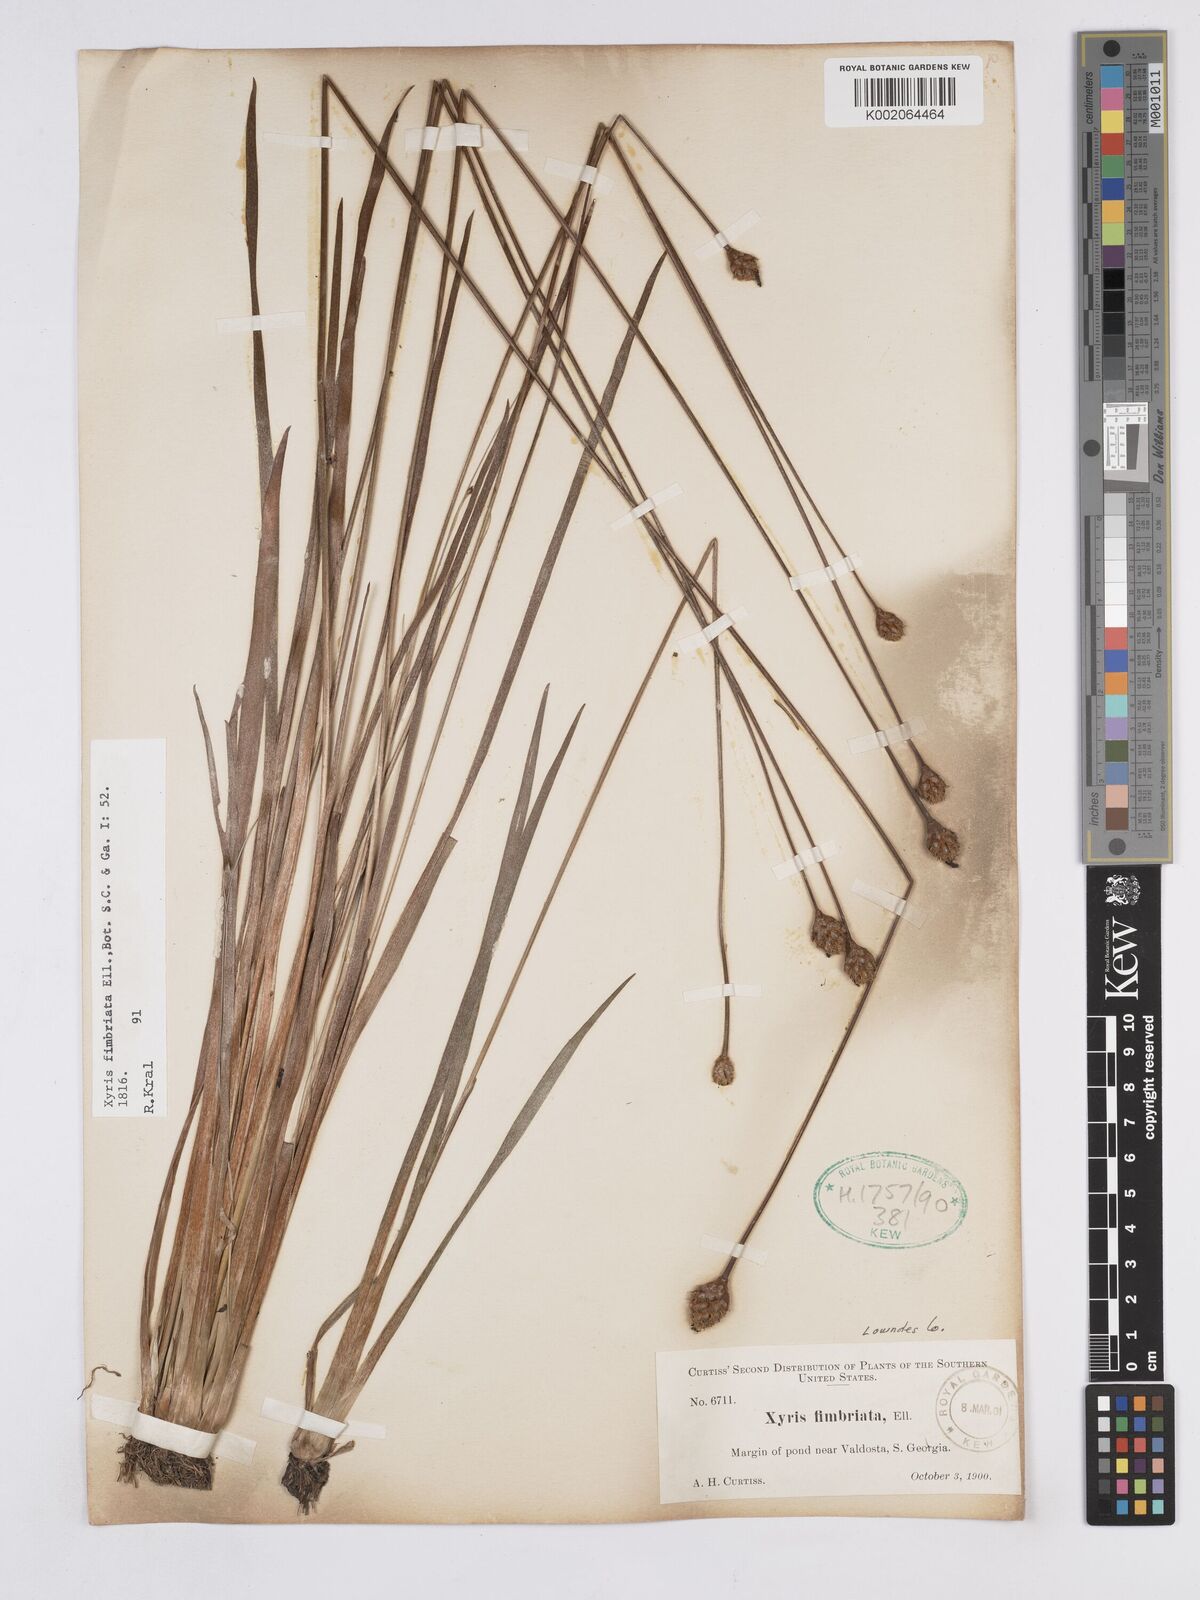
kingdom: Plantae
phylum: Tracheophyta
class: Liliopsida
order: Poales
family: Xyridaceae
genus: Xyris
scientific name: Xyris fimbriata
